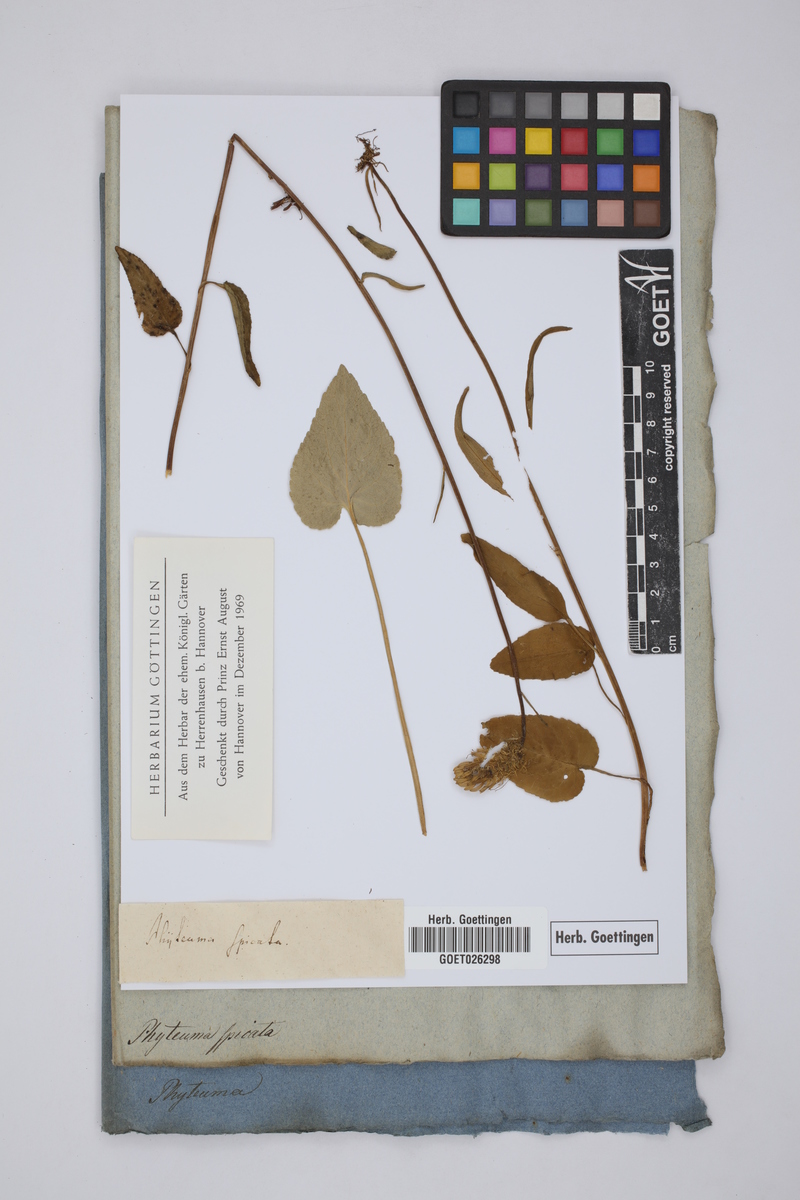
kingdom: Plantae
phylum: Tracheophyta
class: Magnoliopsida
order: Asterales
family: Campanulaceae
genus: Phyteuma
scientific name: Phyteuma spicatum
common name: Spiked rampion
